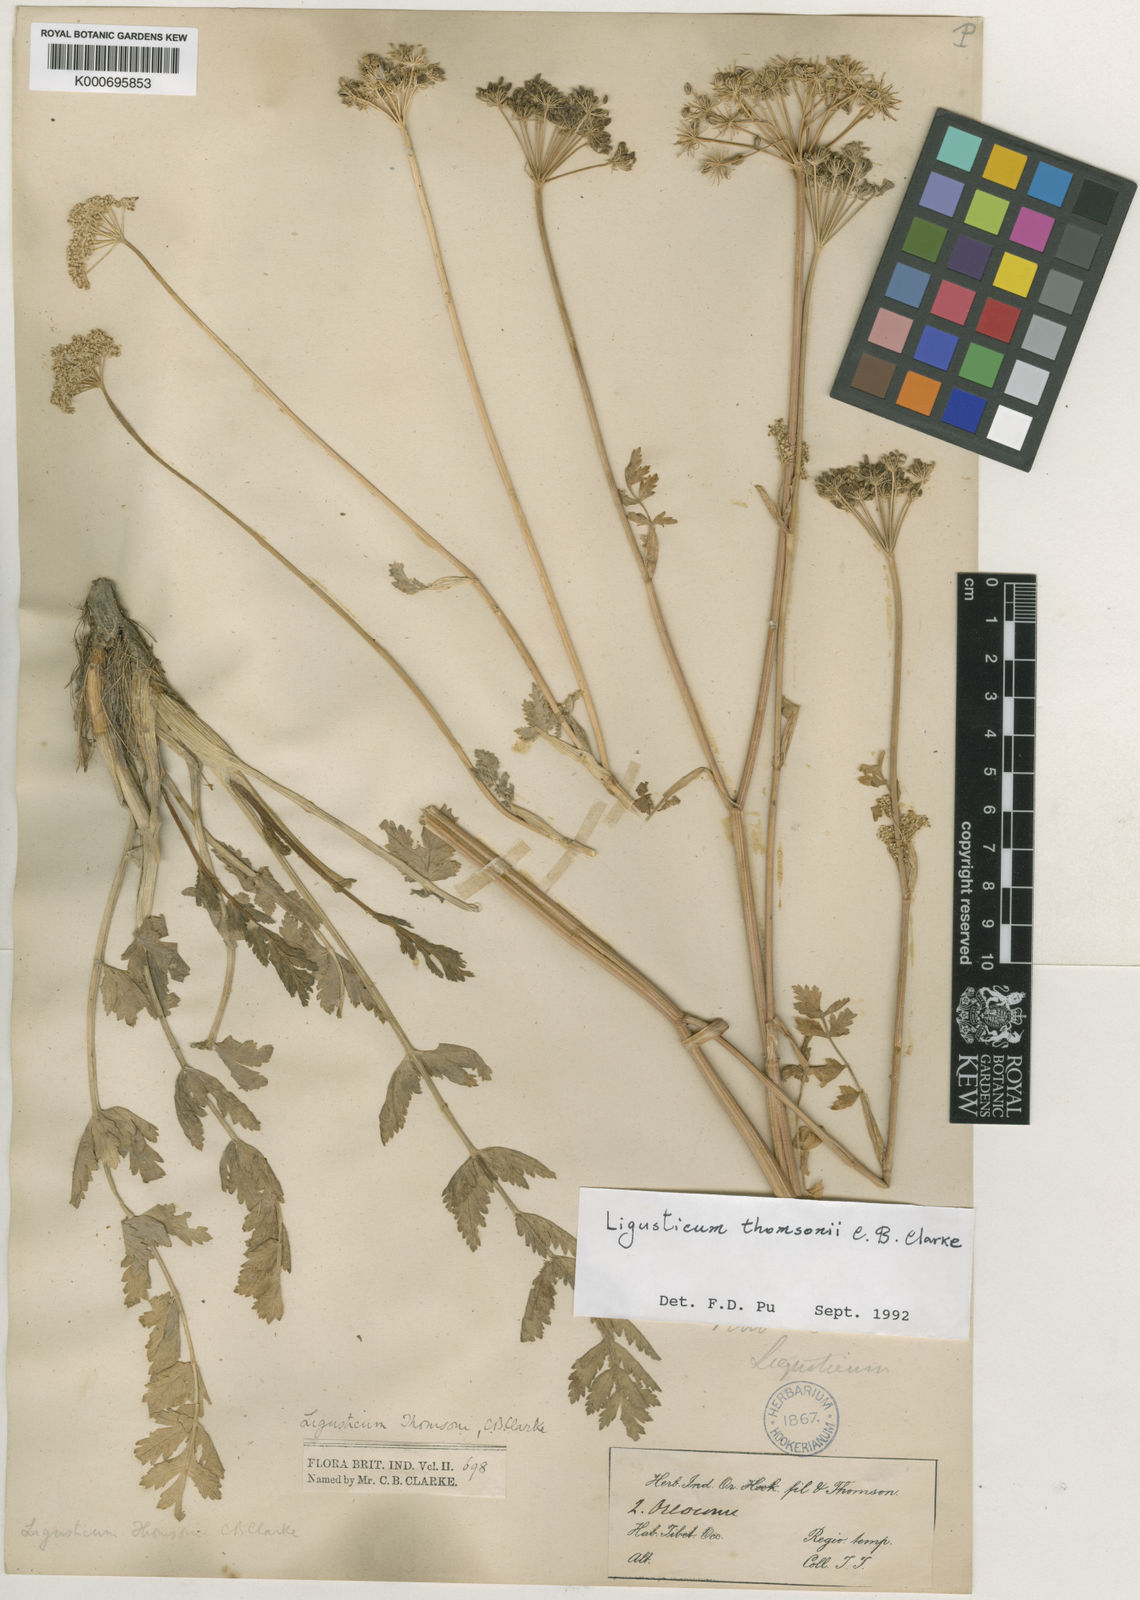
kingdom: Plantae
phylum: Tracheophyta
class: Magnoliopsida
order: Apiales
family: Apiaceae
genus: Seseli
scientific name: Seseli mucronatum
